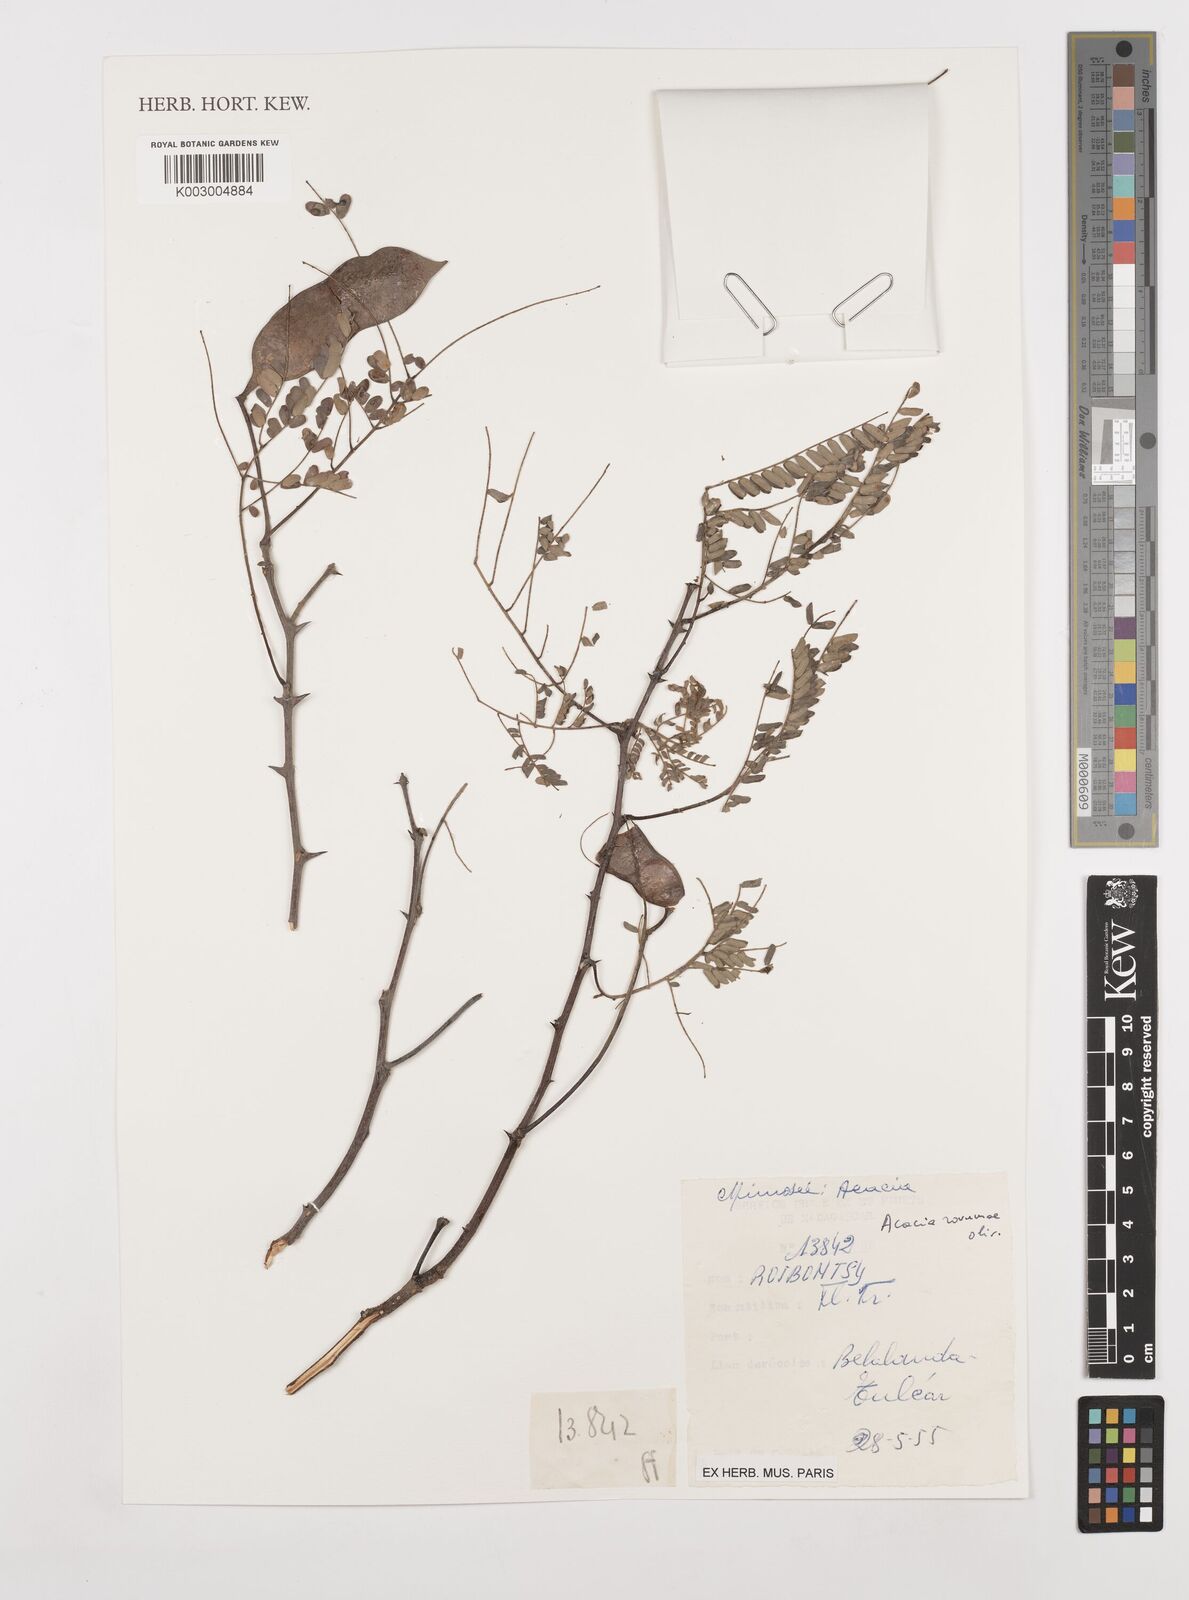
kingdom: Plantae
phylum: Tracheophyta
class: Magnoliopsida
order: Fabales
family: Fabaceae
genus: Senegalia
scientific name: Senegalia rovumae
